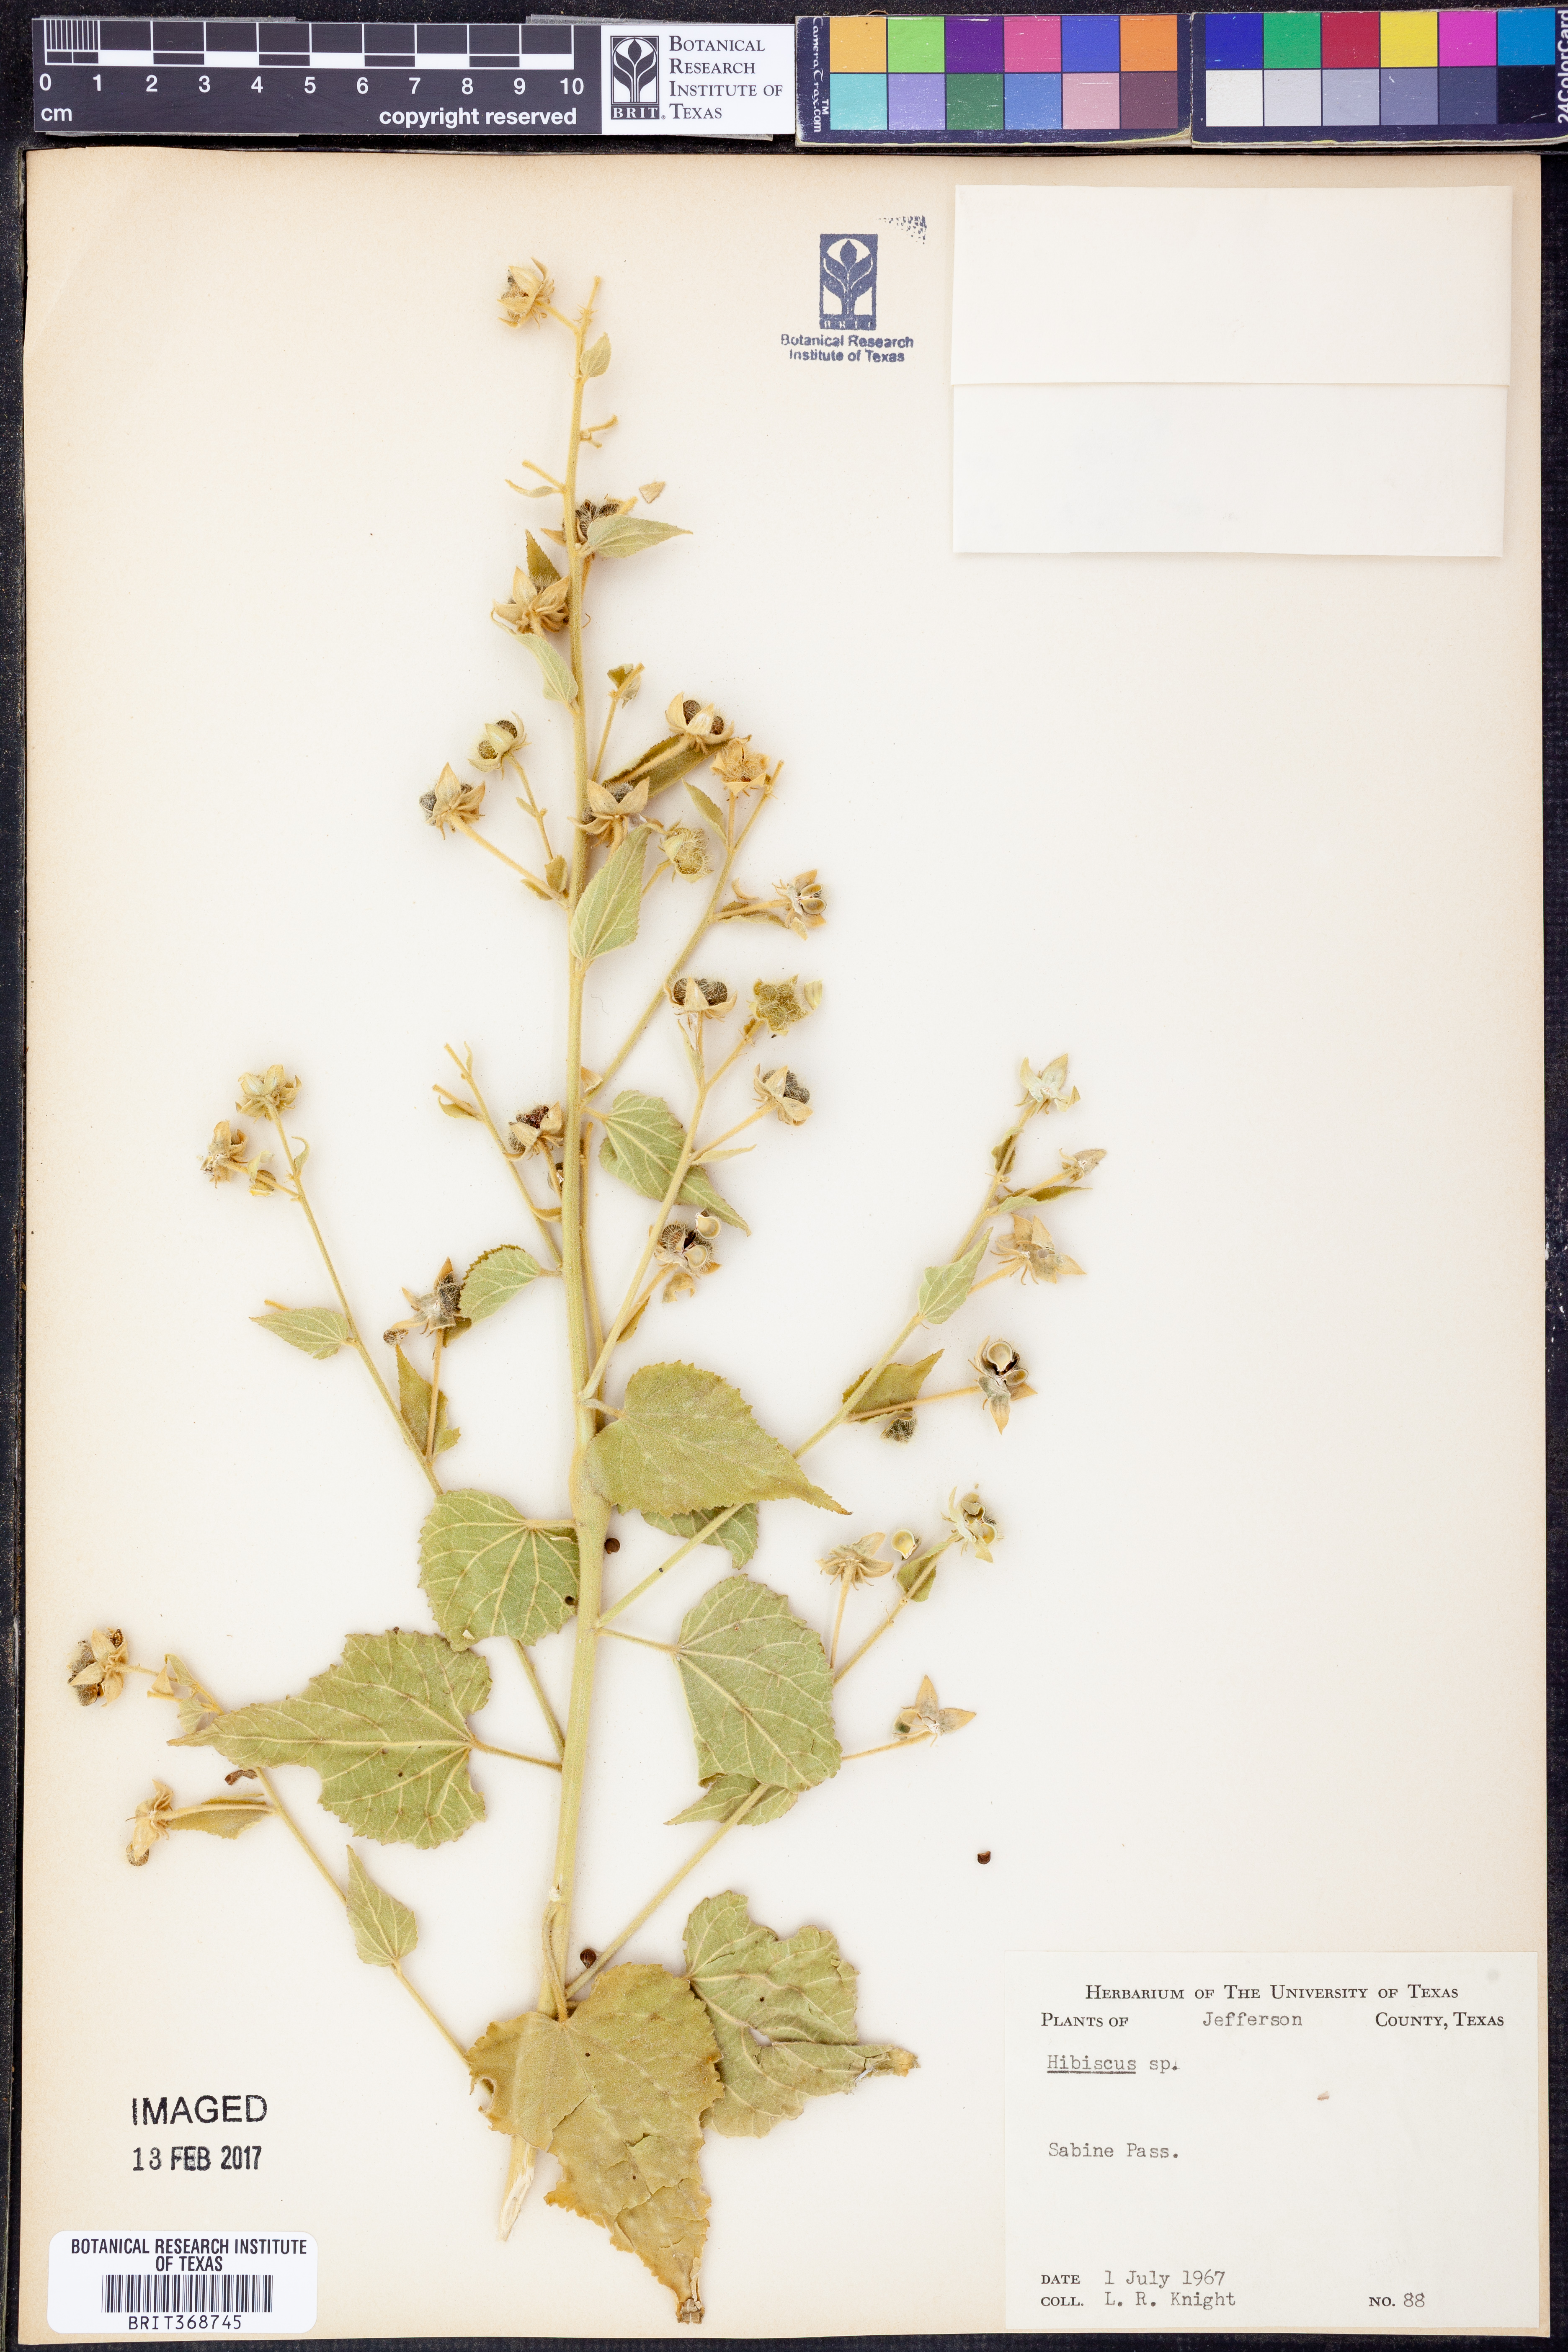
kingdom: Plantae
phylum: Tracheophyta
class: Magnoliopsida
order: Malvales
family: Malvaceae
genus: Hibiscus
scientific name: Hibiscus
